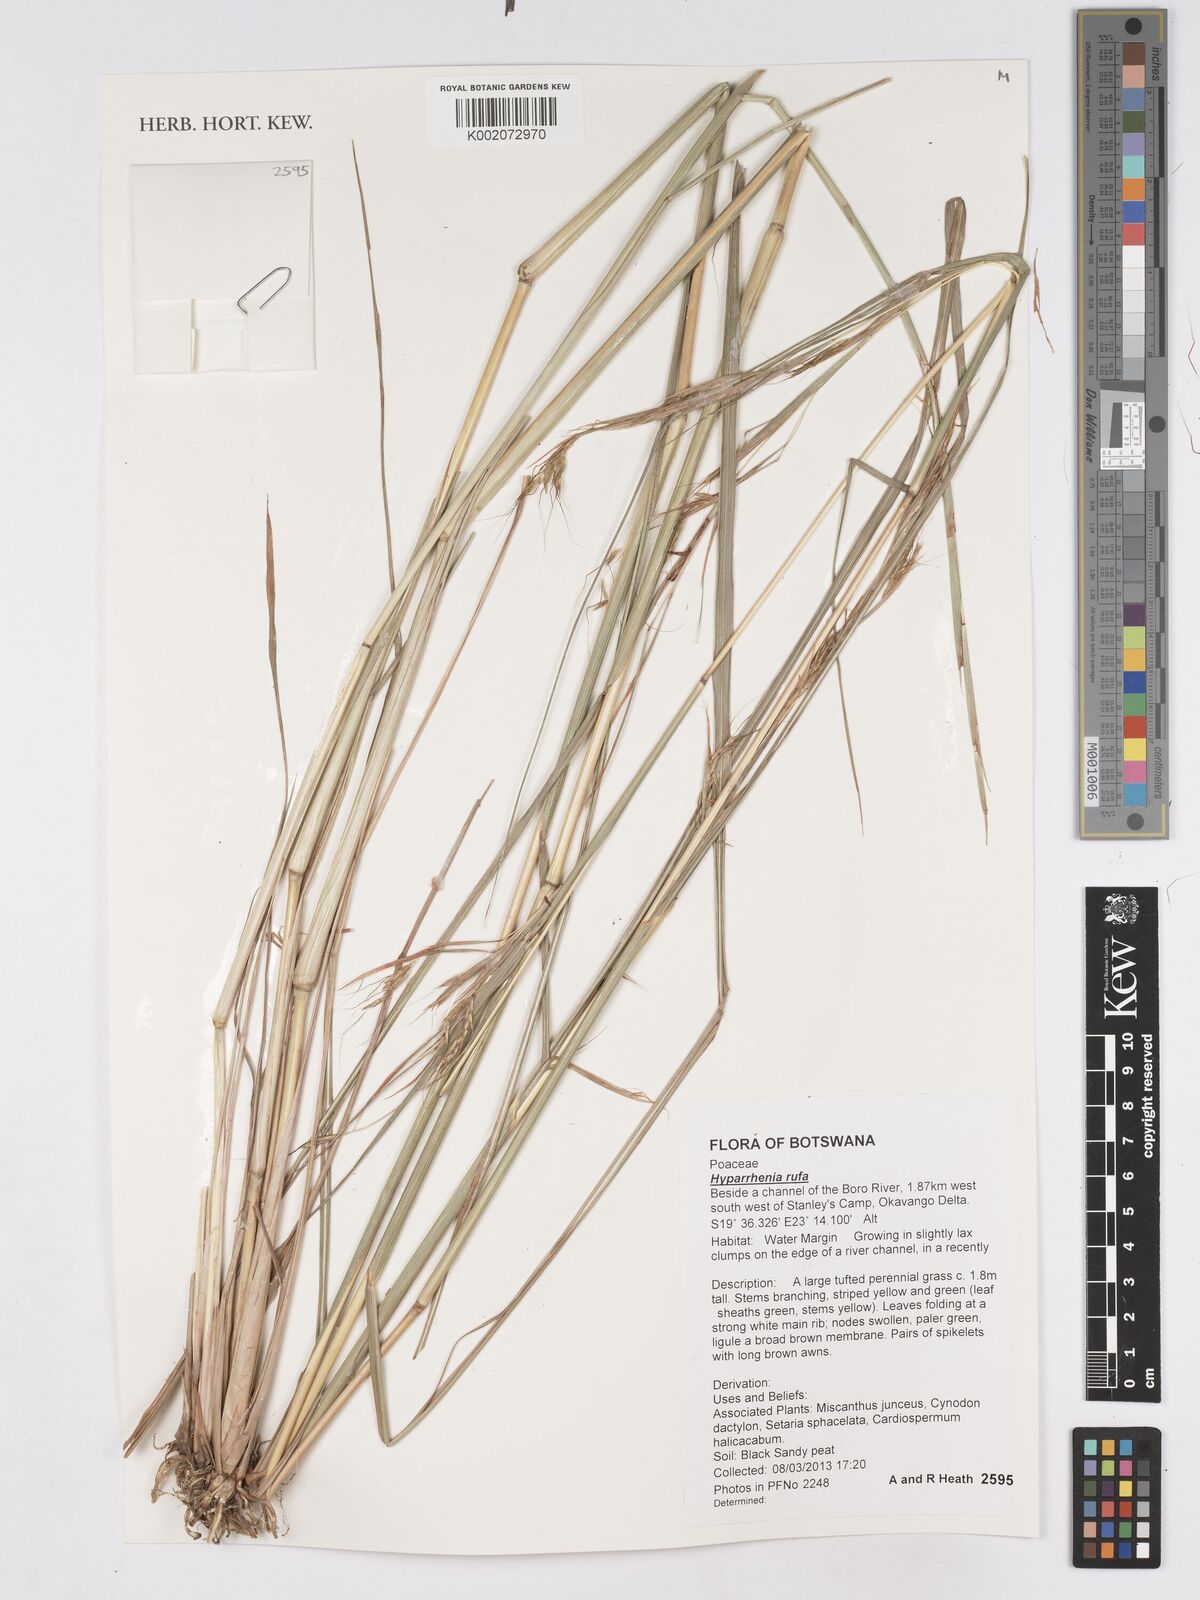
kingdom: Plantae
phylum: Tracheophyta
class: Liliopsida
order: Poales
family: Poaceae
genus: Hyparrhenia
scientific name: Hyparrhenia rufa
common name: Jaraguagrass
